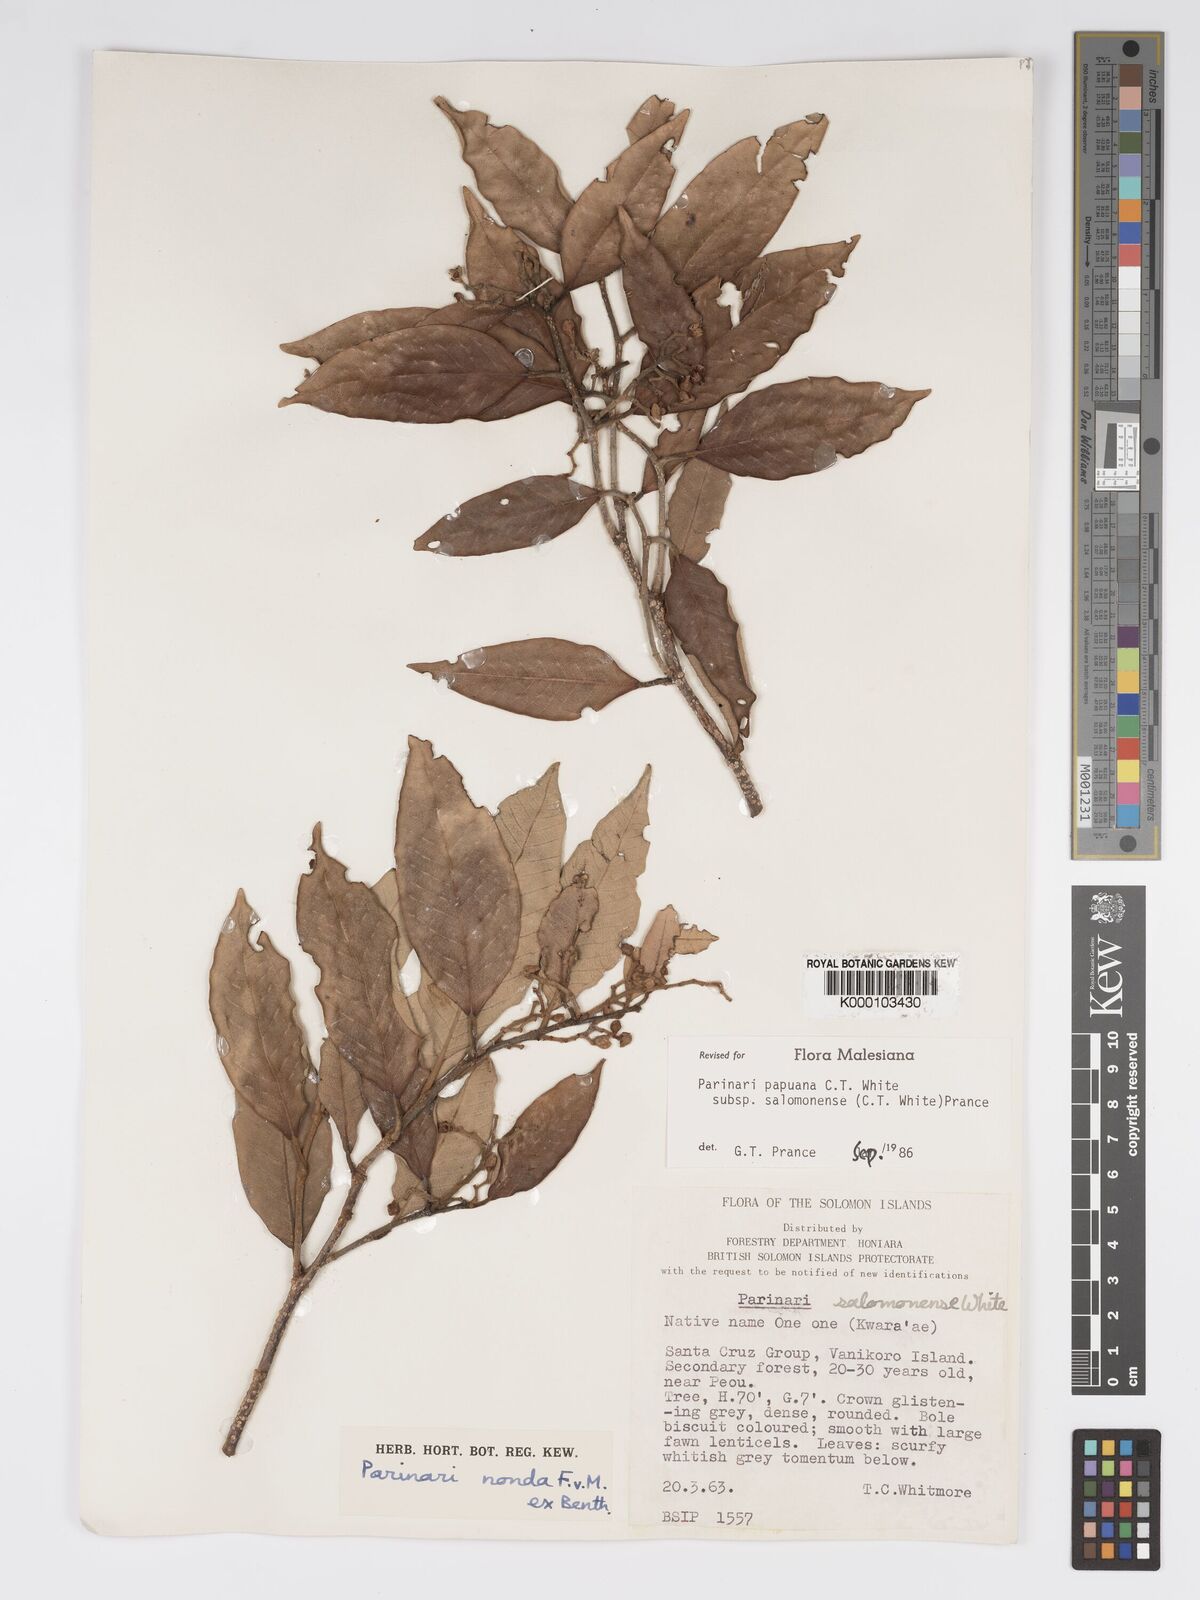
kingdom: Plantae
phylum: Tracheophyta
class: Magnoliopsida
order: Malpighiales
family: Chrysobalanaceae
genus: Parinari
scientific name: Parinari papuana
